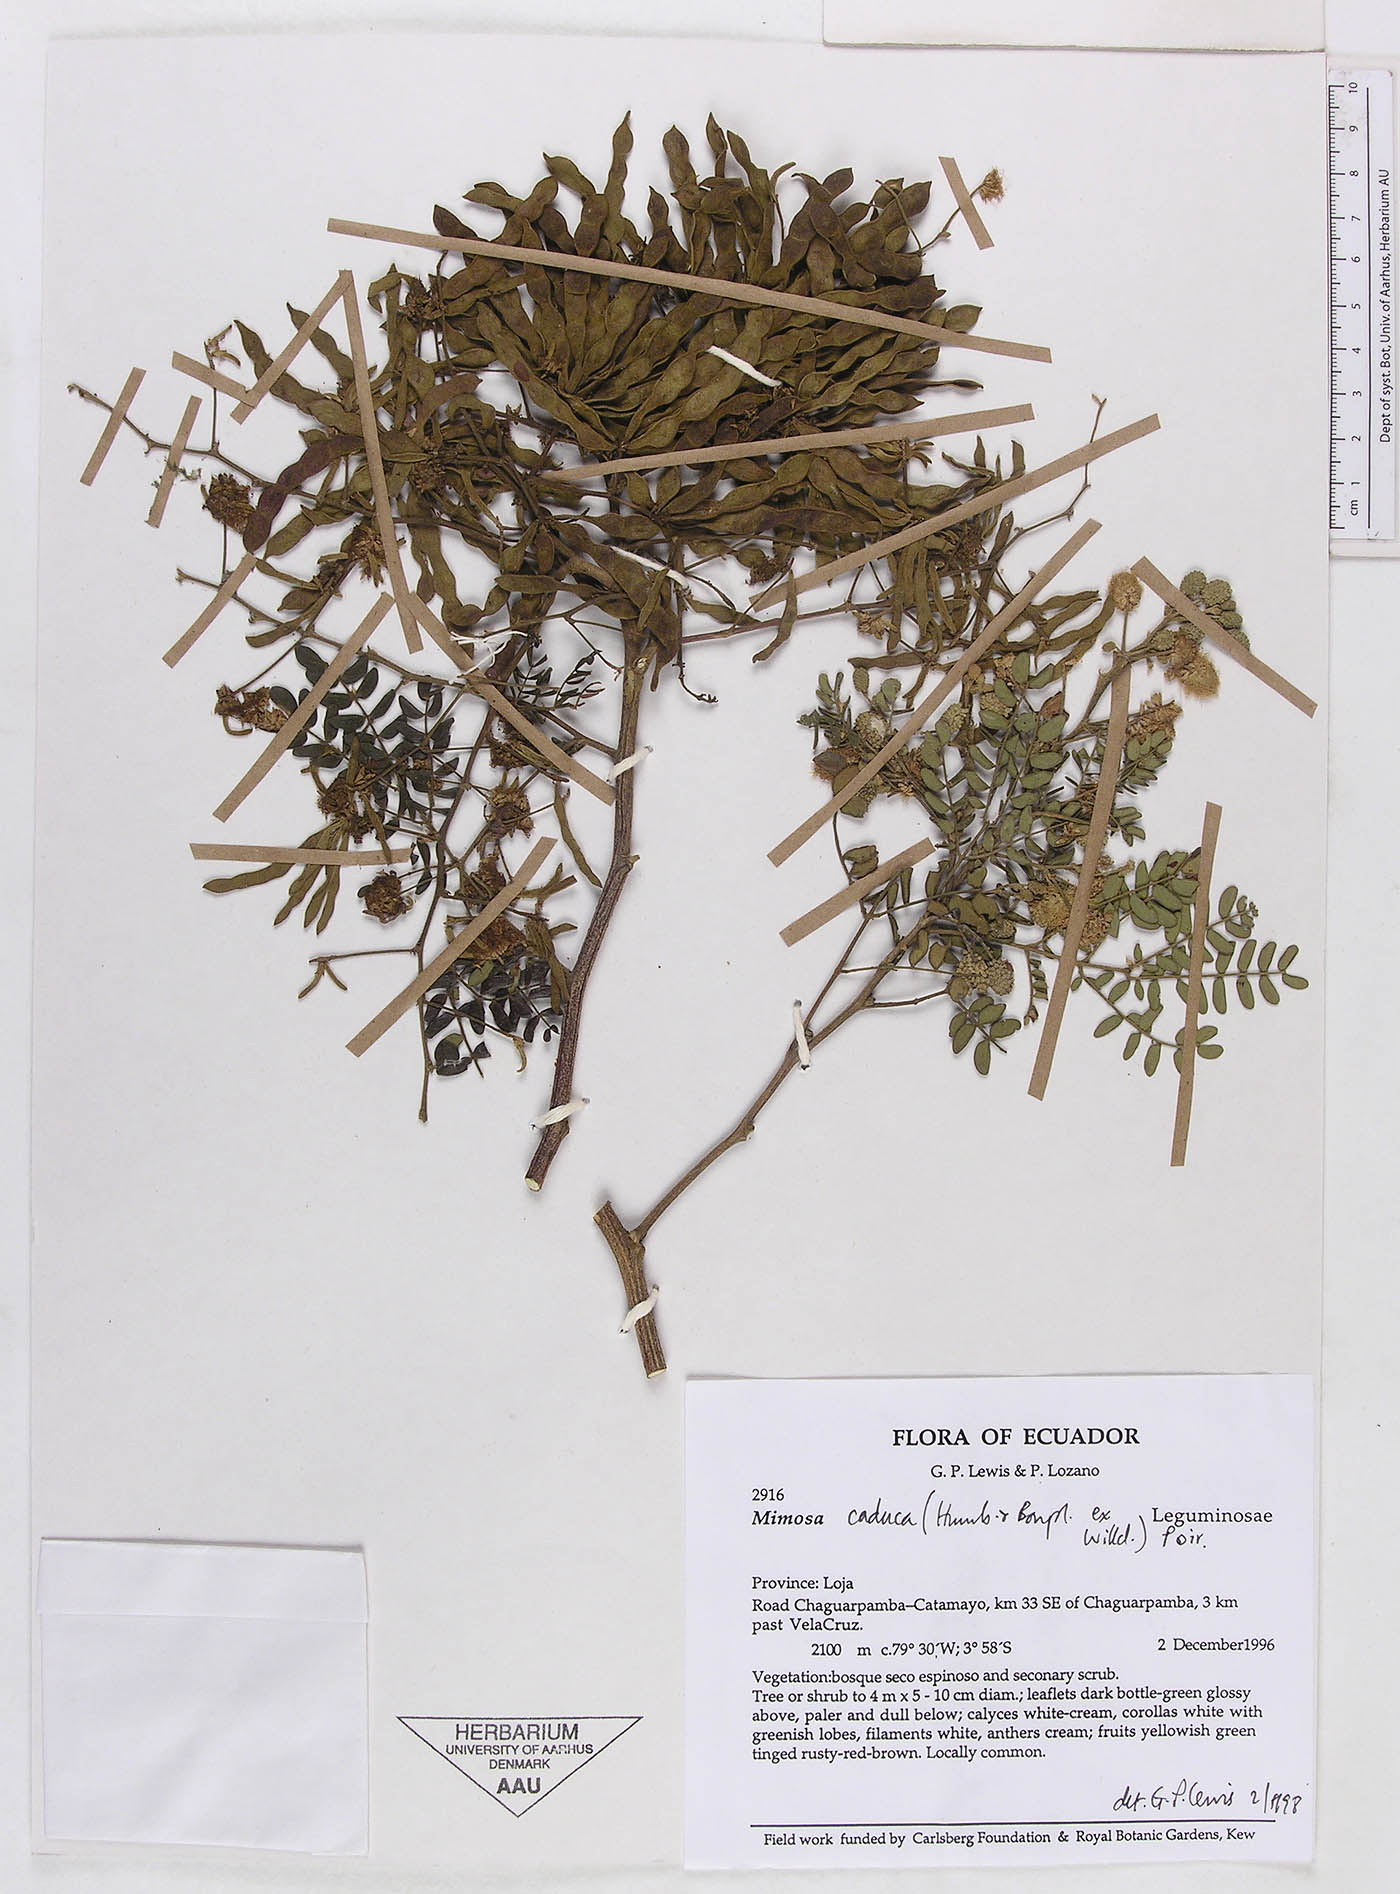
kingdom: Plantae
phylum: Tracheophyta
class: Magnoliopsida
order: Fabales
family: Fabaceae
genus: Mimosa
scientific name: Mimosa caduca
